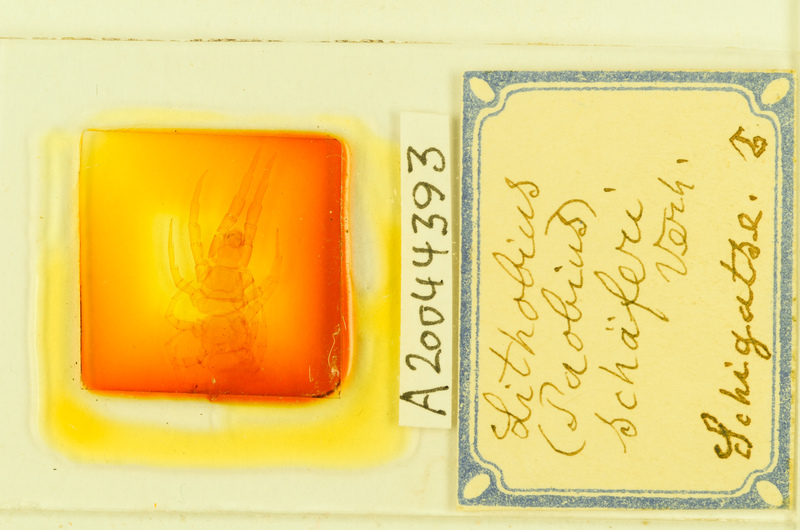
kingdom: Animalia
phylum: Arthropoda
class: Chilopoda
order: Lithobiomorpha
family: Lithobiidae
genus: Lithobius
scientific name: Lithobius schaeferi
